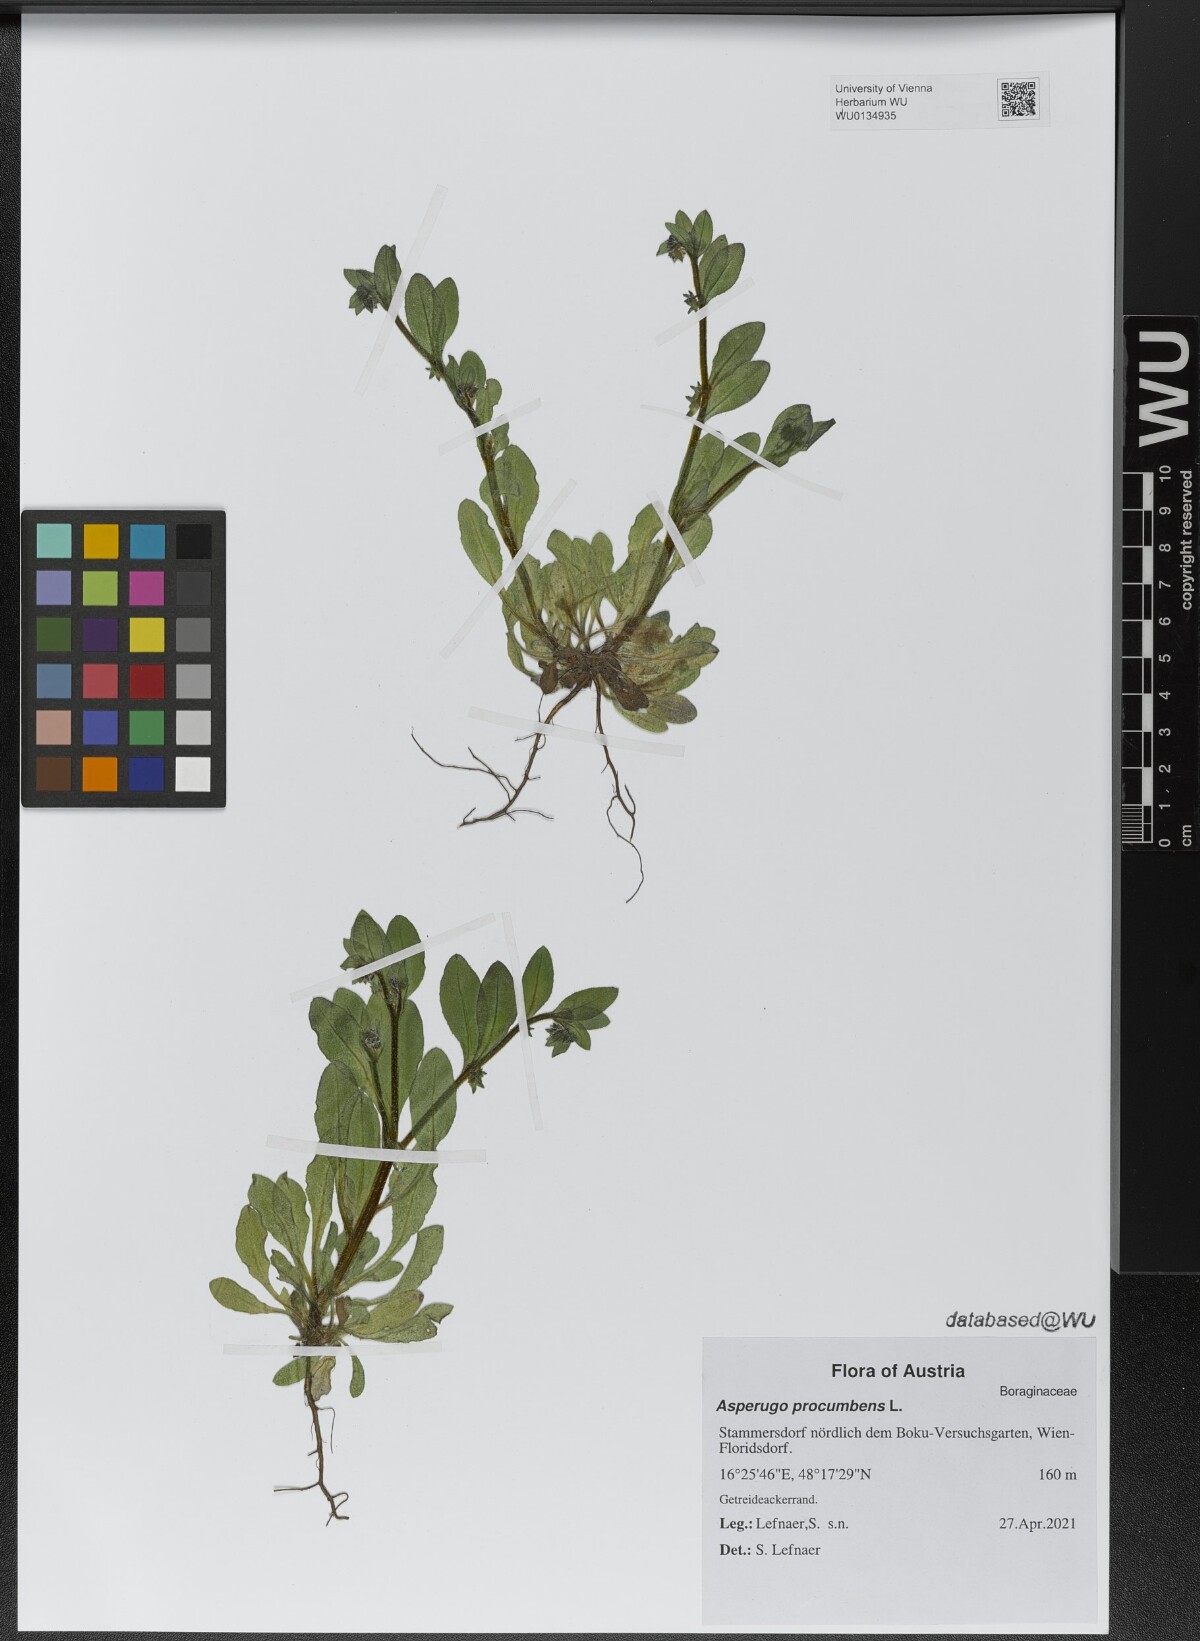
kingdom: Plantae
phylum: Tracheophyta
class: Magnoliopsida
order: Boraginales
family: Boraginaceae
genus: Asperugo
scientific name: Asperugo procumbens
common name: Madwort
